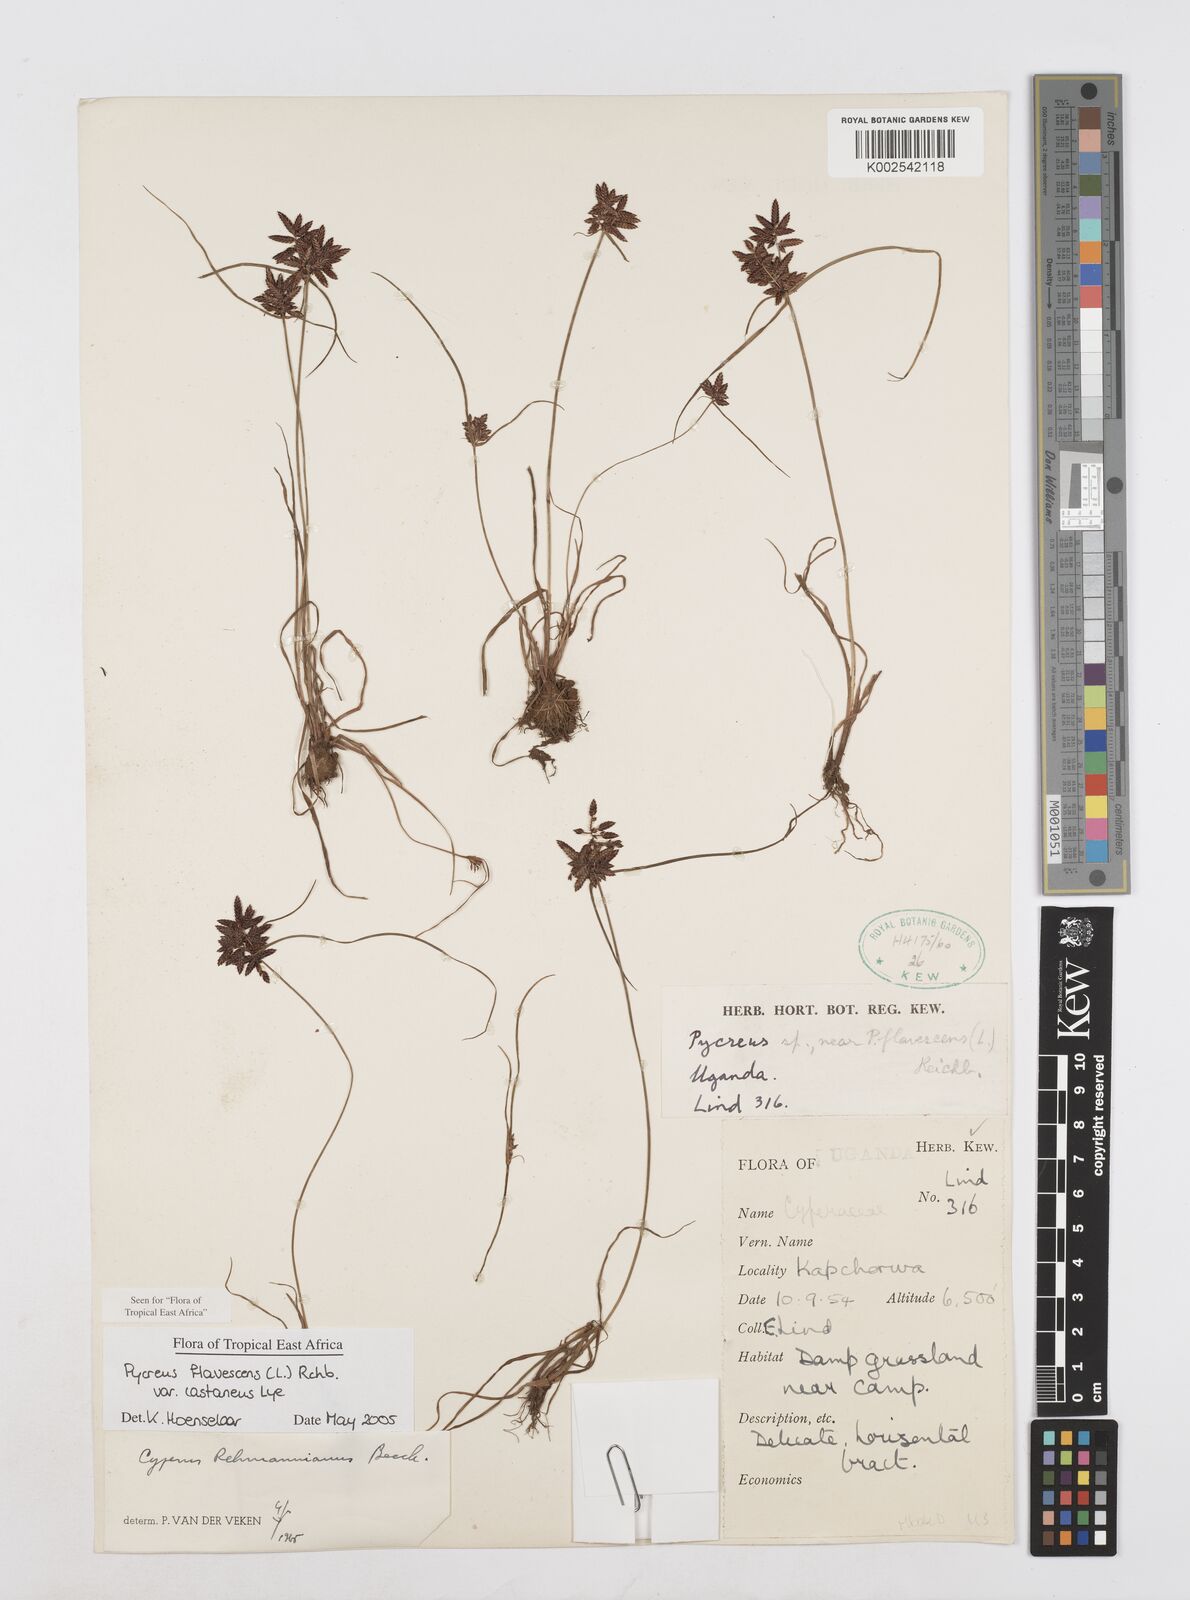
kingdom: Plantae
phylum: Tracheophyta
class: Liliopsida
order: Poales
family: Cyperaceae
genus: Cyperus
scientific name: Cyperus flavescens
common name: Yellow galingale
